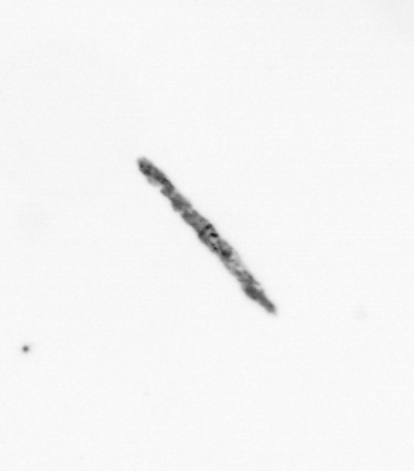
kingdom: Chromista
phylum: Ochrophyta
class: Bacillariophyceae
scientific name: Bacillariophyceae
